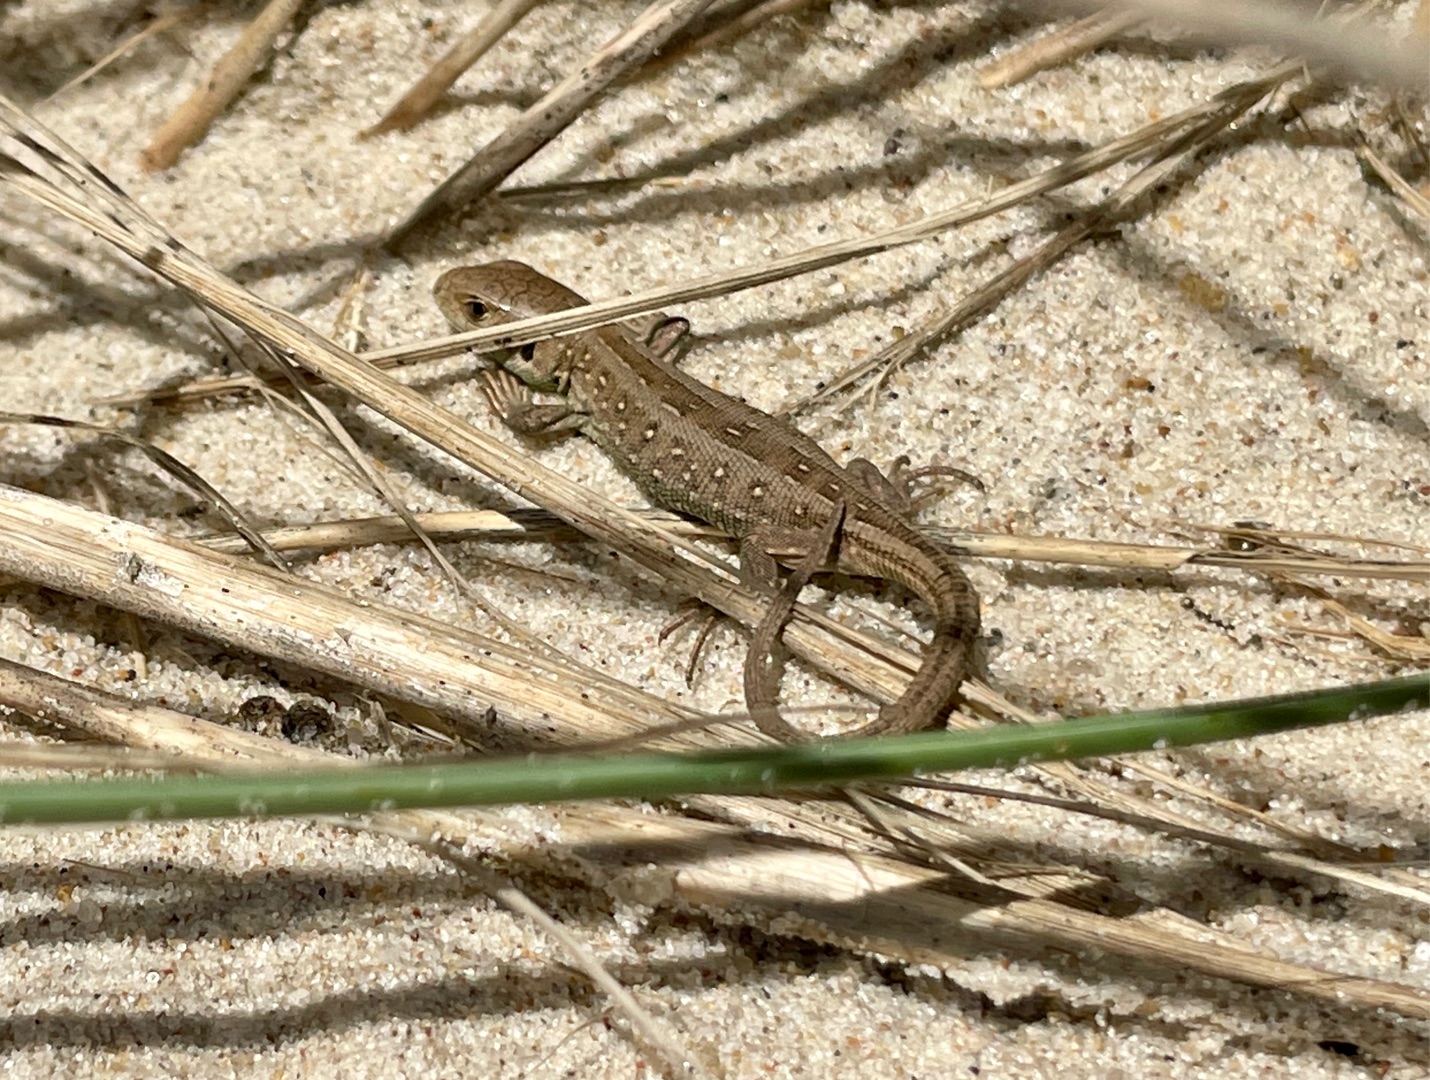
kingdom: Animalia
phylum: Chordata
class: Squamata
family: Lacertidae
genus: Lacerta
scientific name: Lacerta agilis
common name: Markfirben
